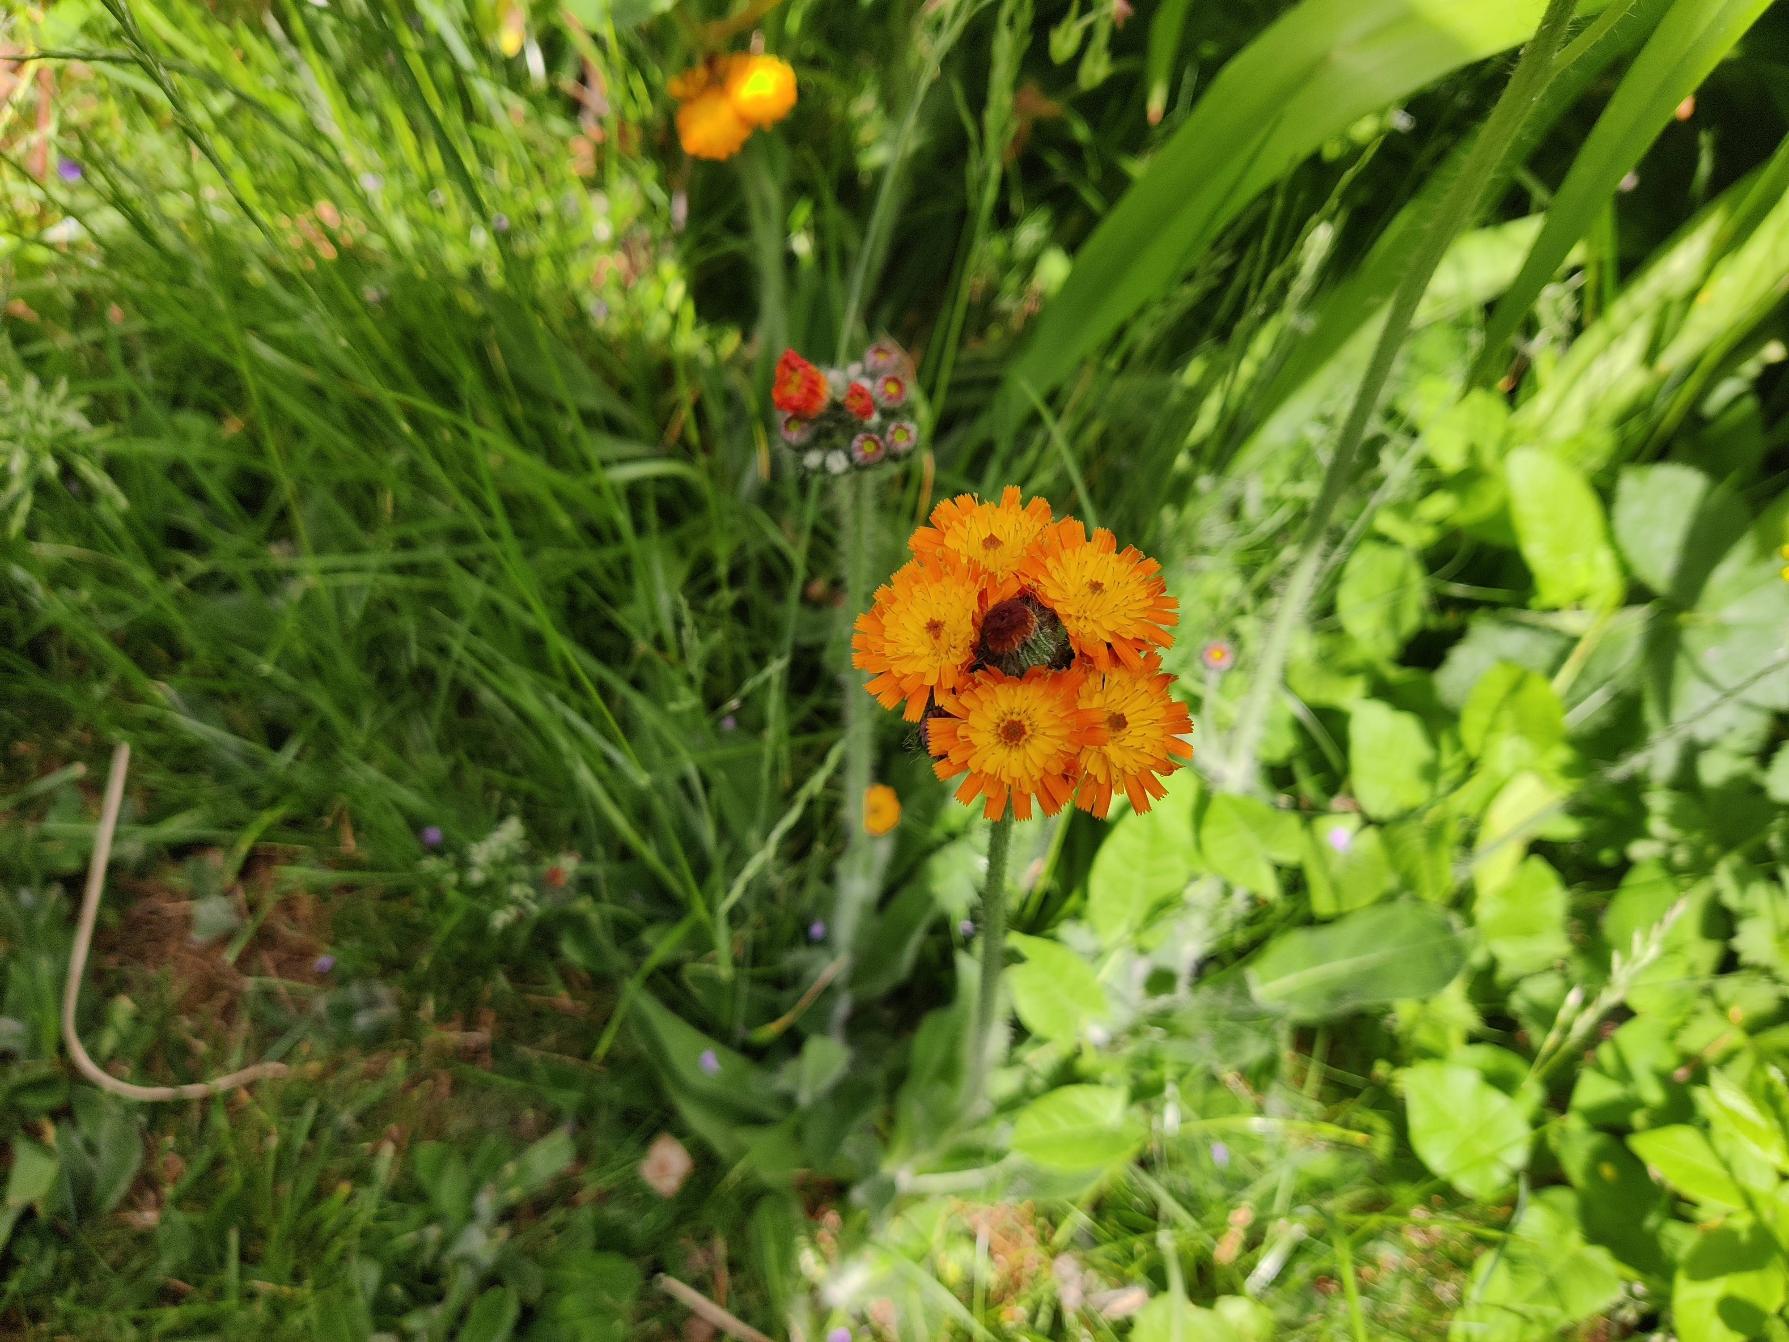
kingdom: Plantae
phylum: Tracheophyta
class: Magnoliopsida
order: Asterales
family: Asteraceae
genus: Pilosella
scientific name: Pilosella aurantiaca
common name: Pomerans-høgeurt
